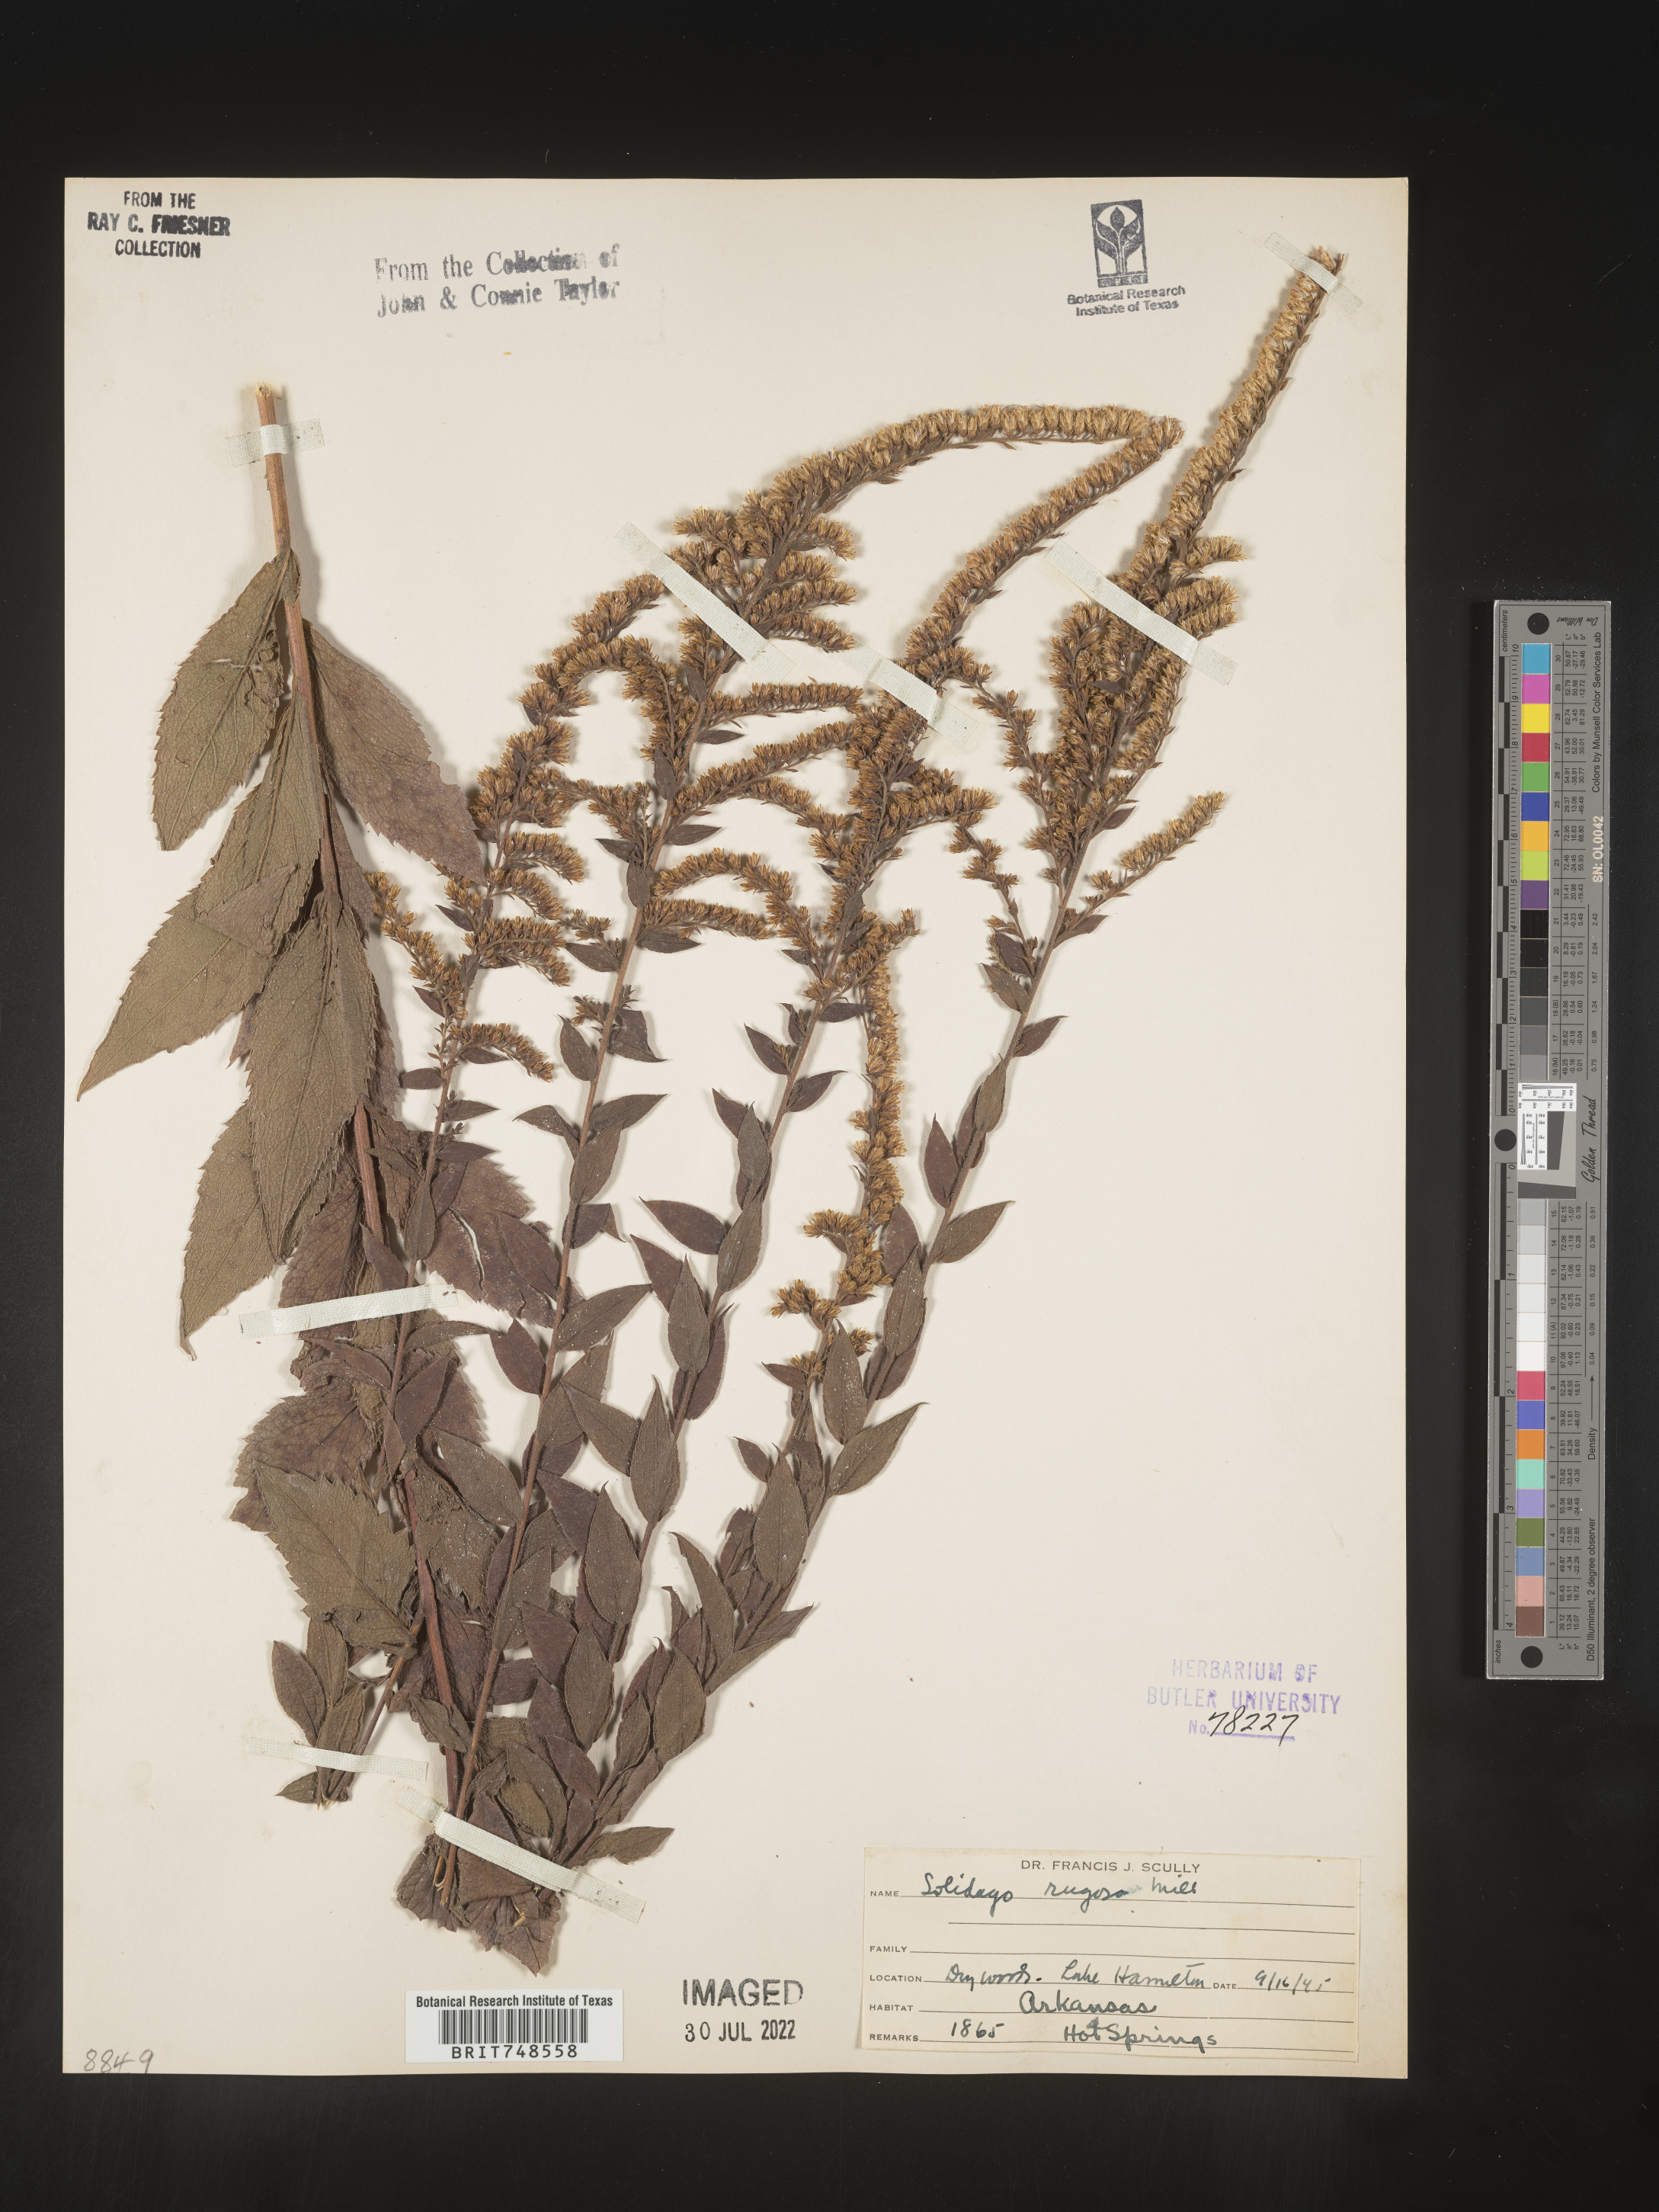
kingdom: Plantae
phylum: Tracheophyta
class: Magnoliopsida
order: Asterales
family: Asteraceae
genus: Solidago
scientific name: Solidago rugosa
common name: Rough-stemmed goldenrod
